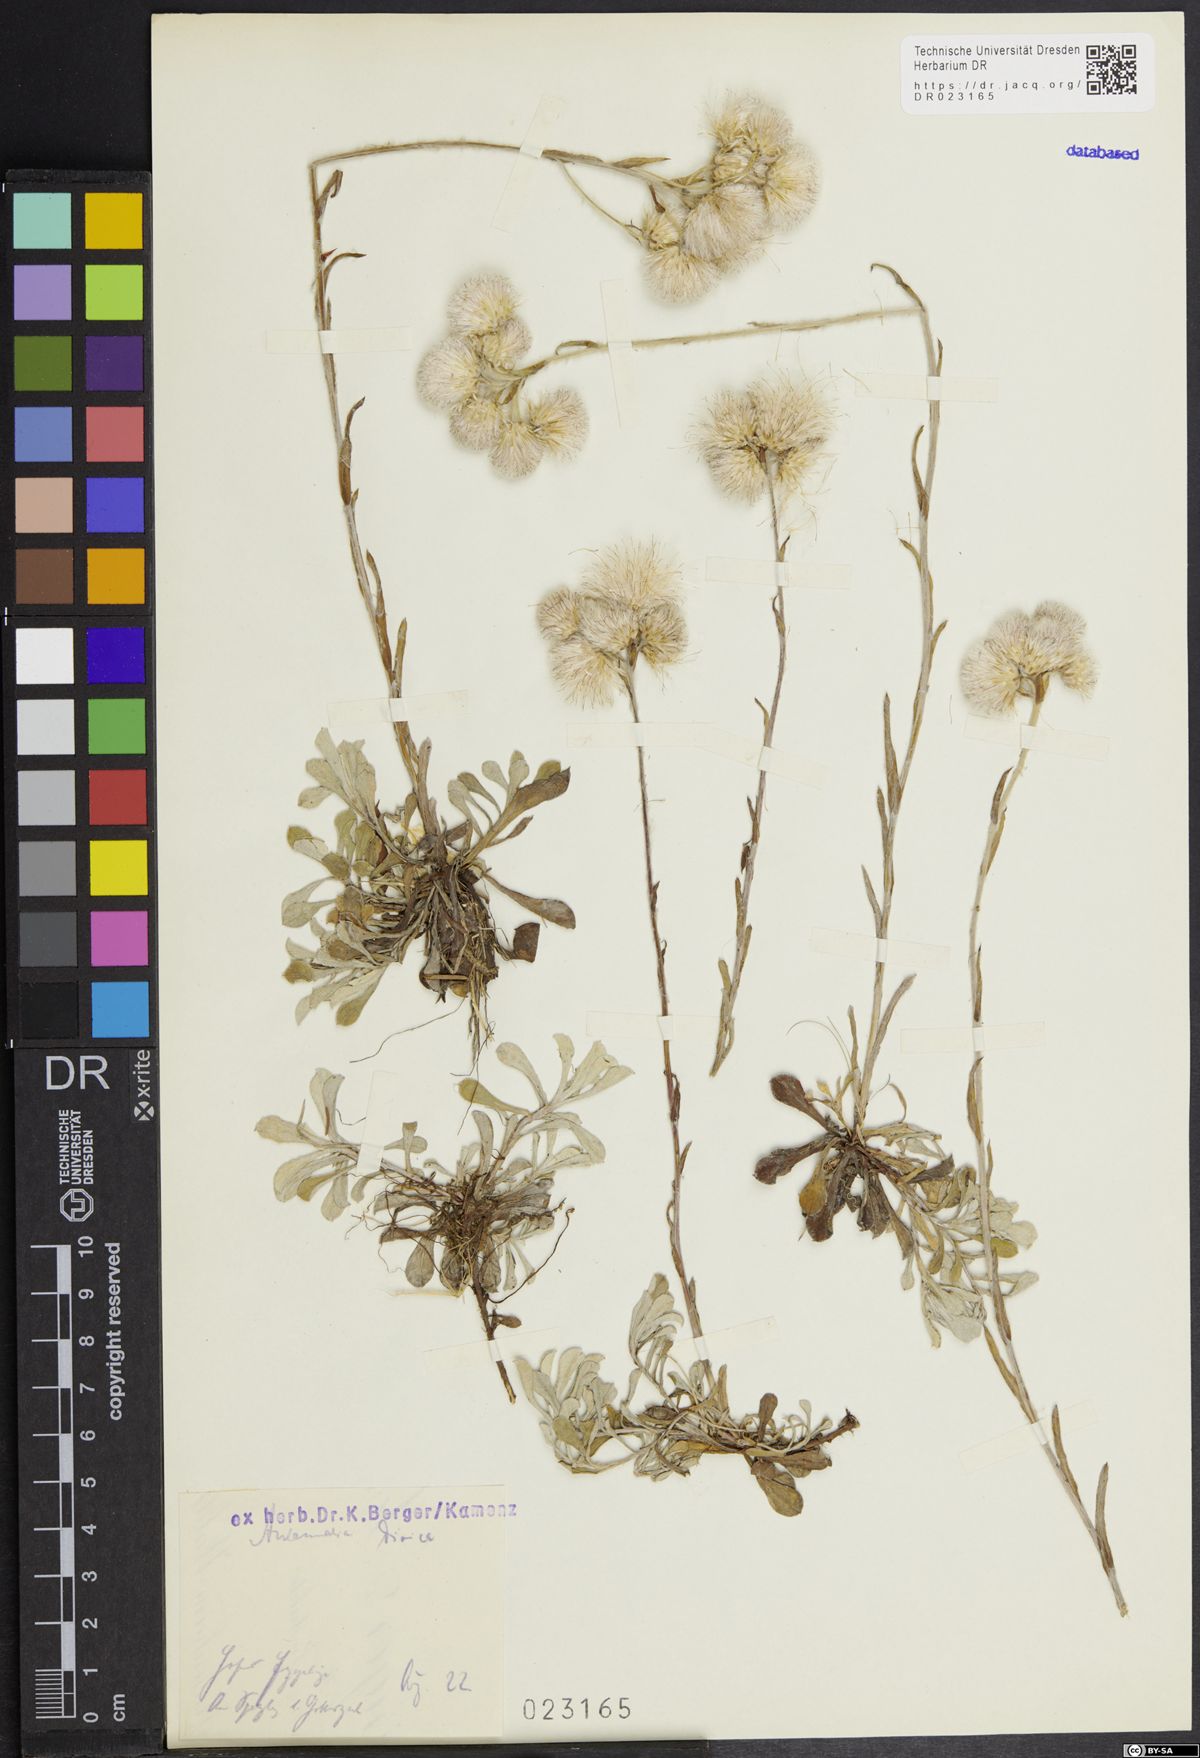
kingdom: Plantae
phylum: Tracheophyta
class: Magnoliopsida
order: Asterales
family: Asteraceae
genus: Antennaria
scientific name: Antennaria dioica
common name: Mountain everlasting
